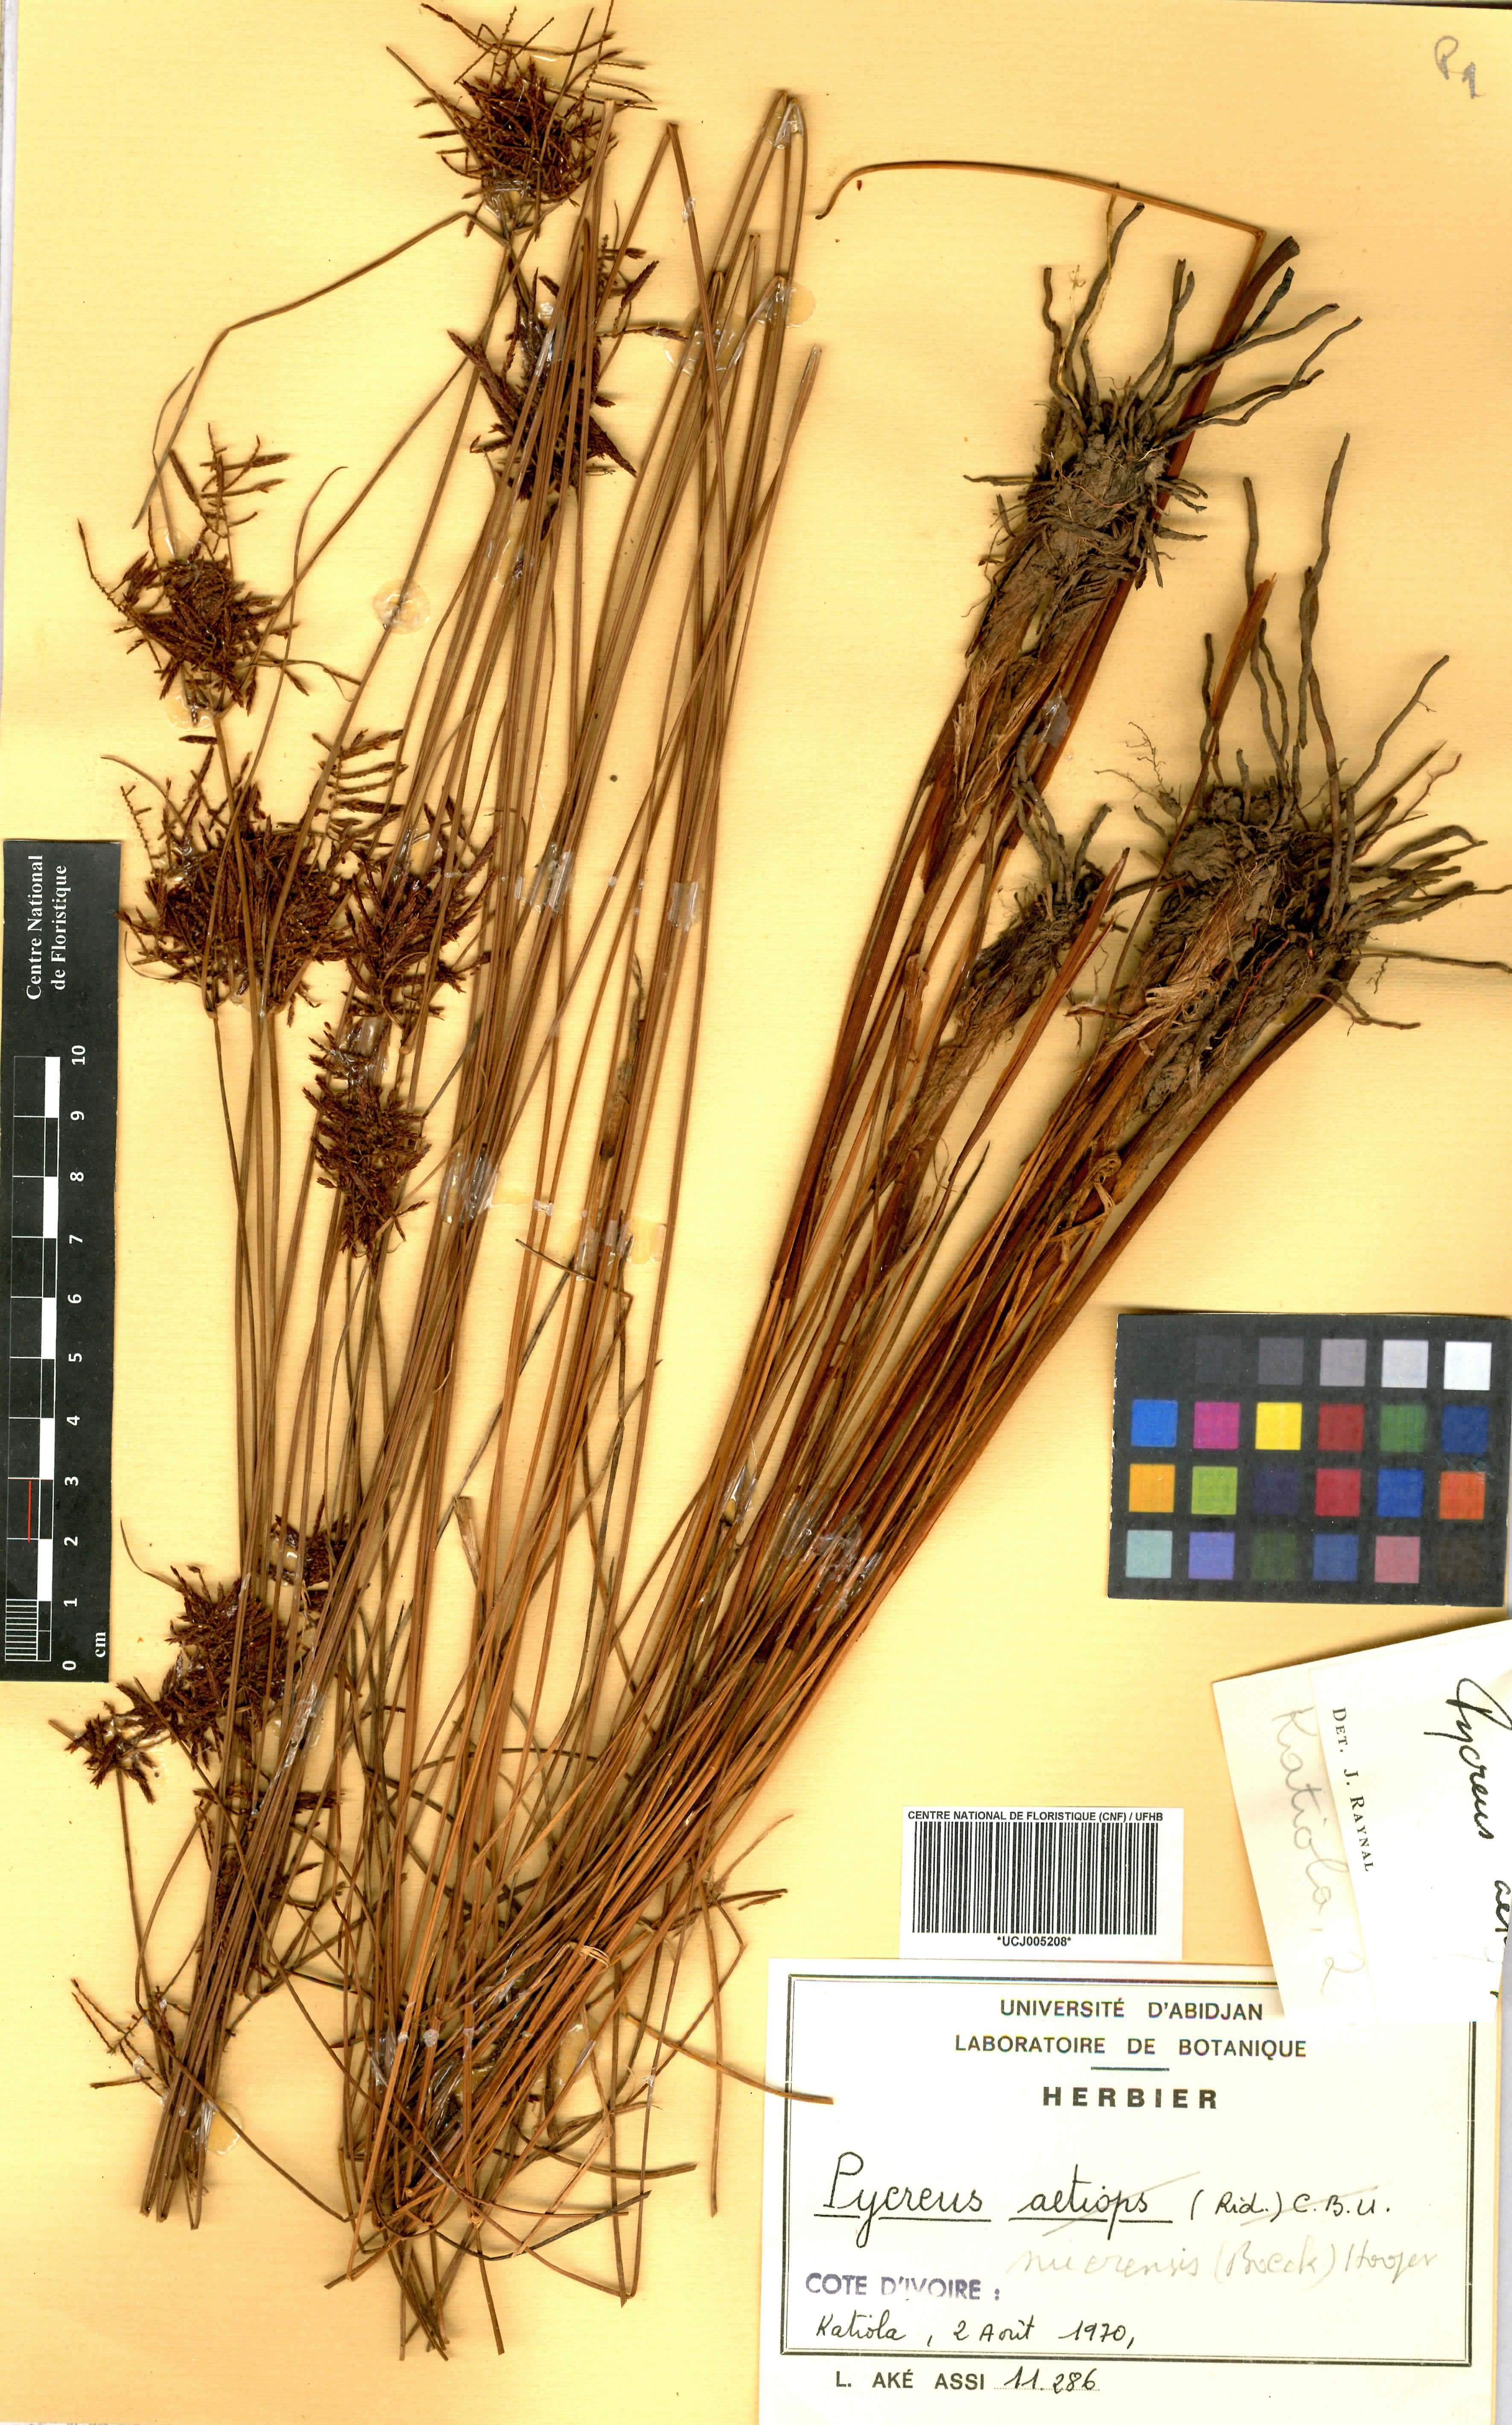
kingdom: Plantae
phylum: Tracheophyta
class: Liliopsida
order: Poales
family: Cyperaceae
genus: Cyperus
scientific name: Cyperus nuerensis
